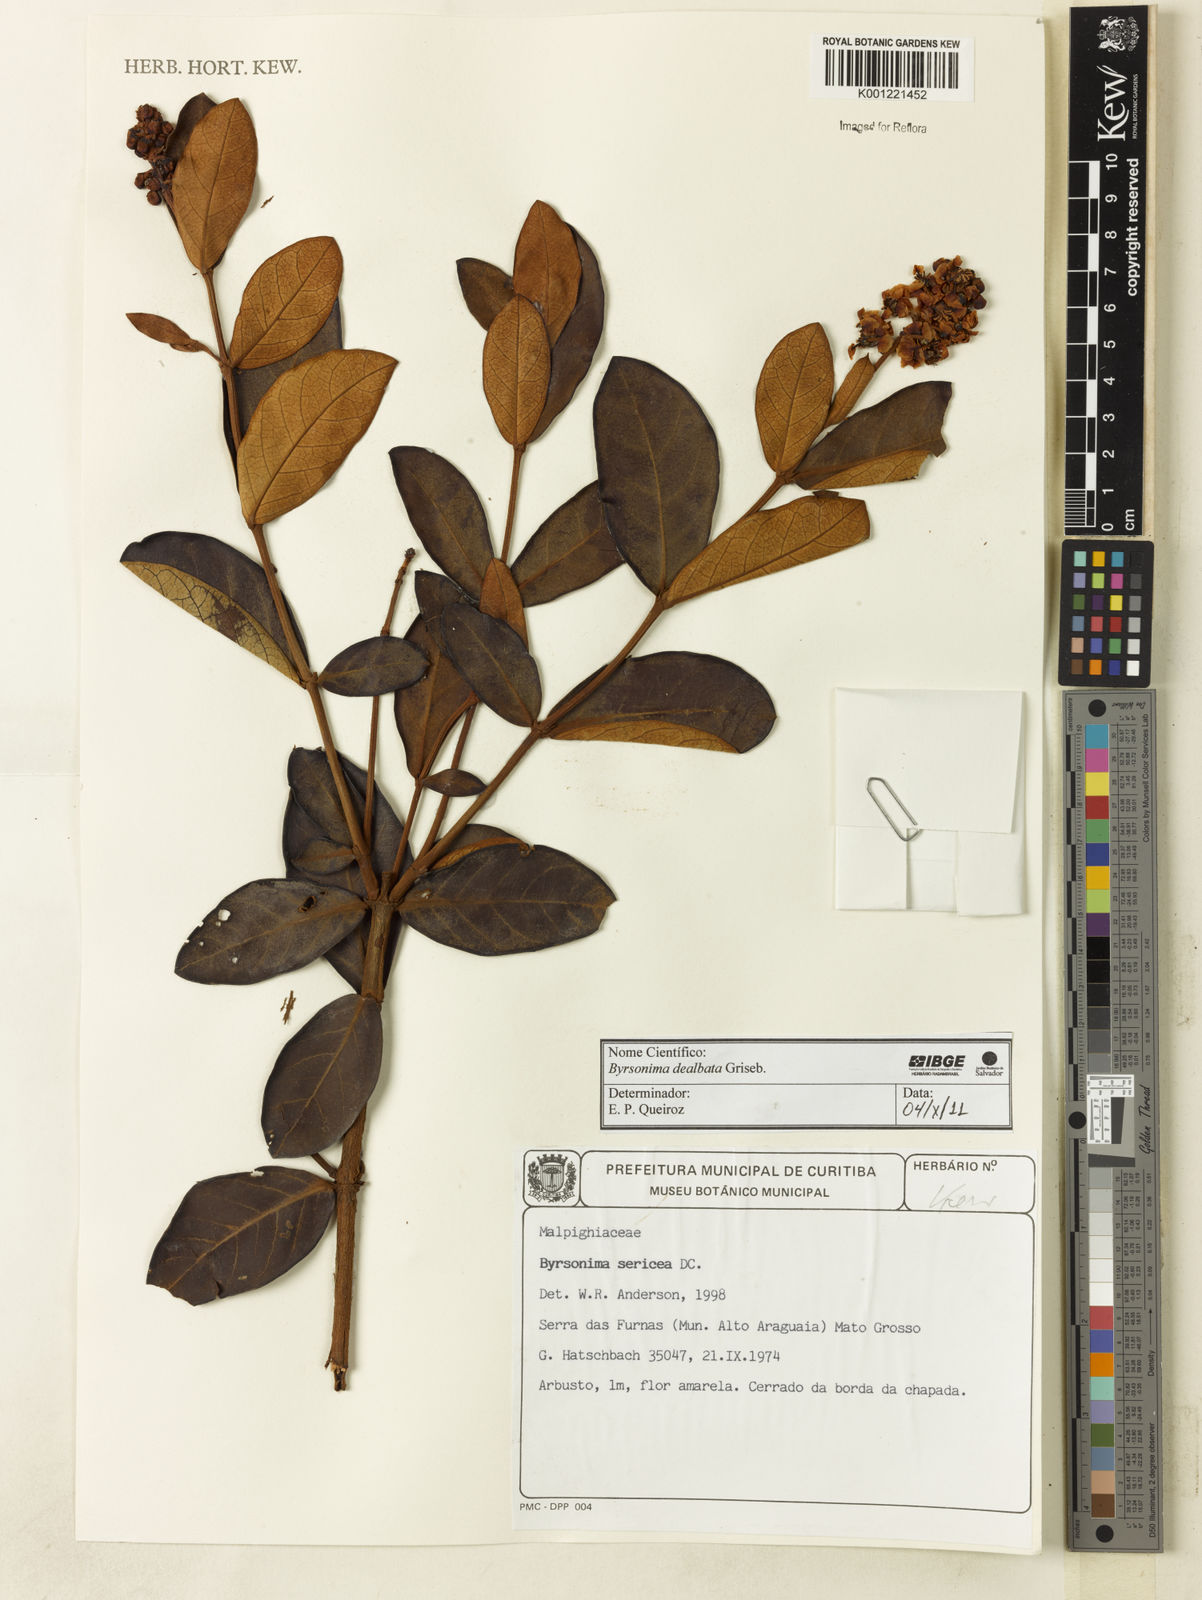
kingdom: Plantae
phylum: Tracheophyta
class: Magnoliopsida
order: Malpighiales
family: Malpighiaceae
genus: Byrsonima
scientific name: Byrsonima dealbata
